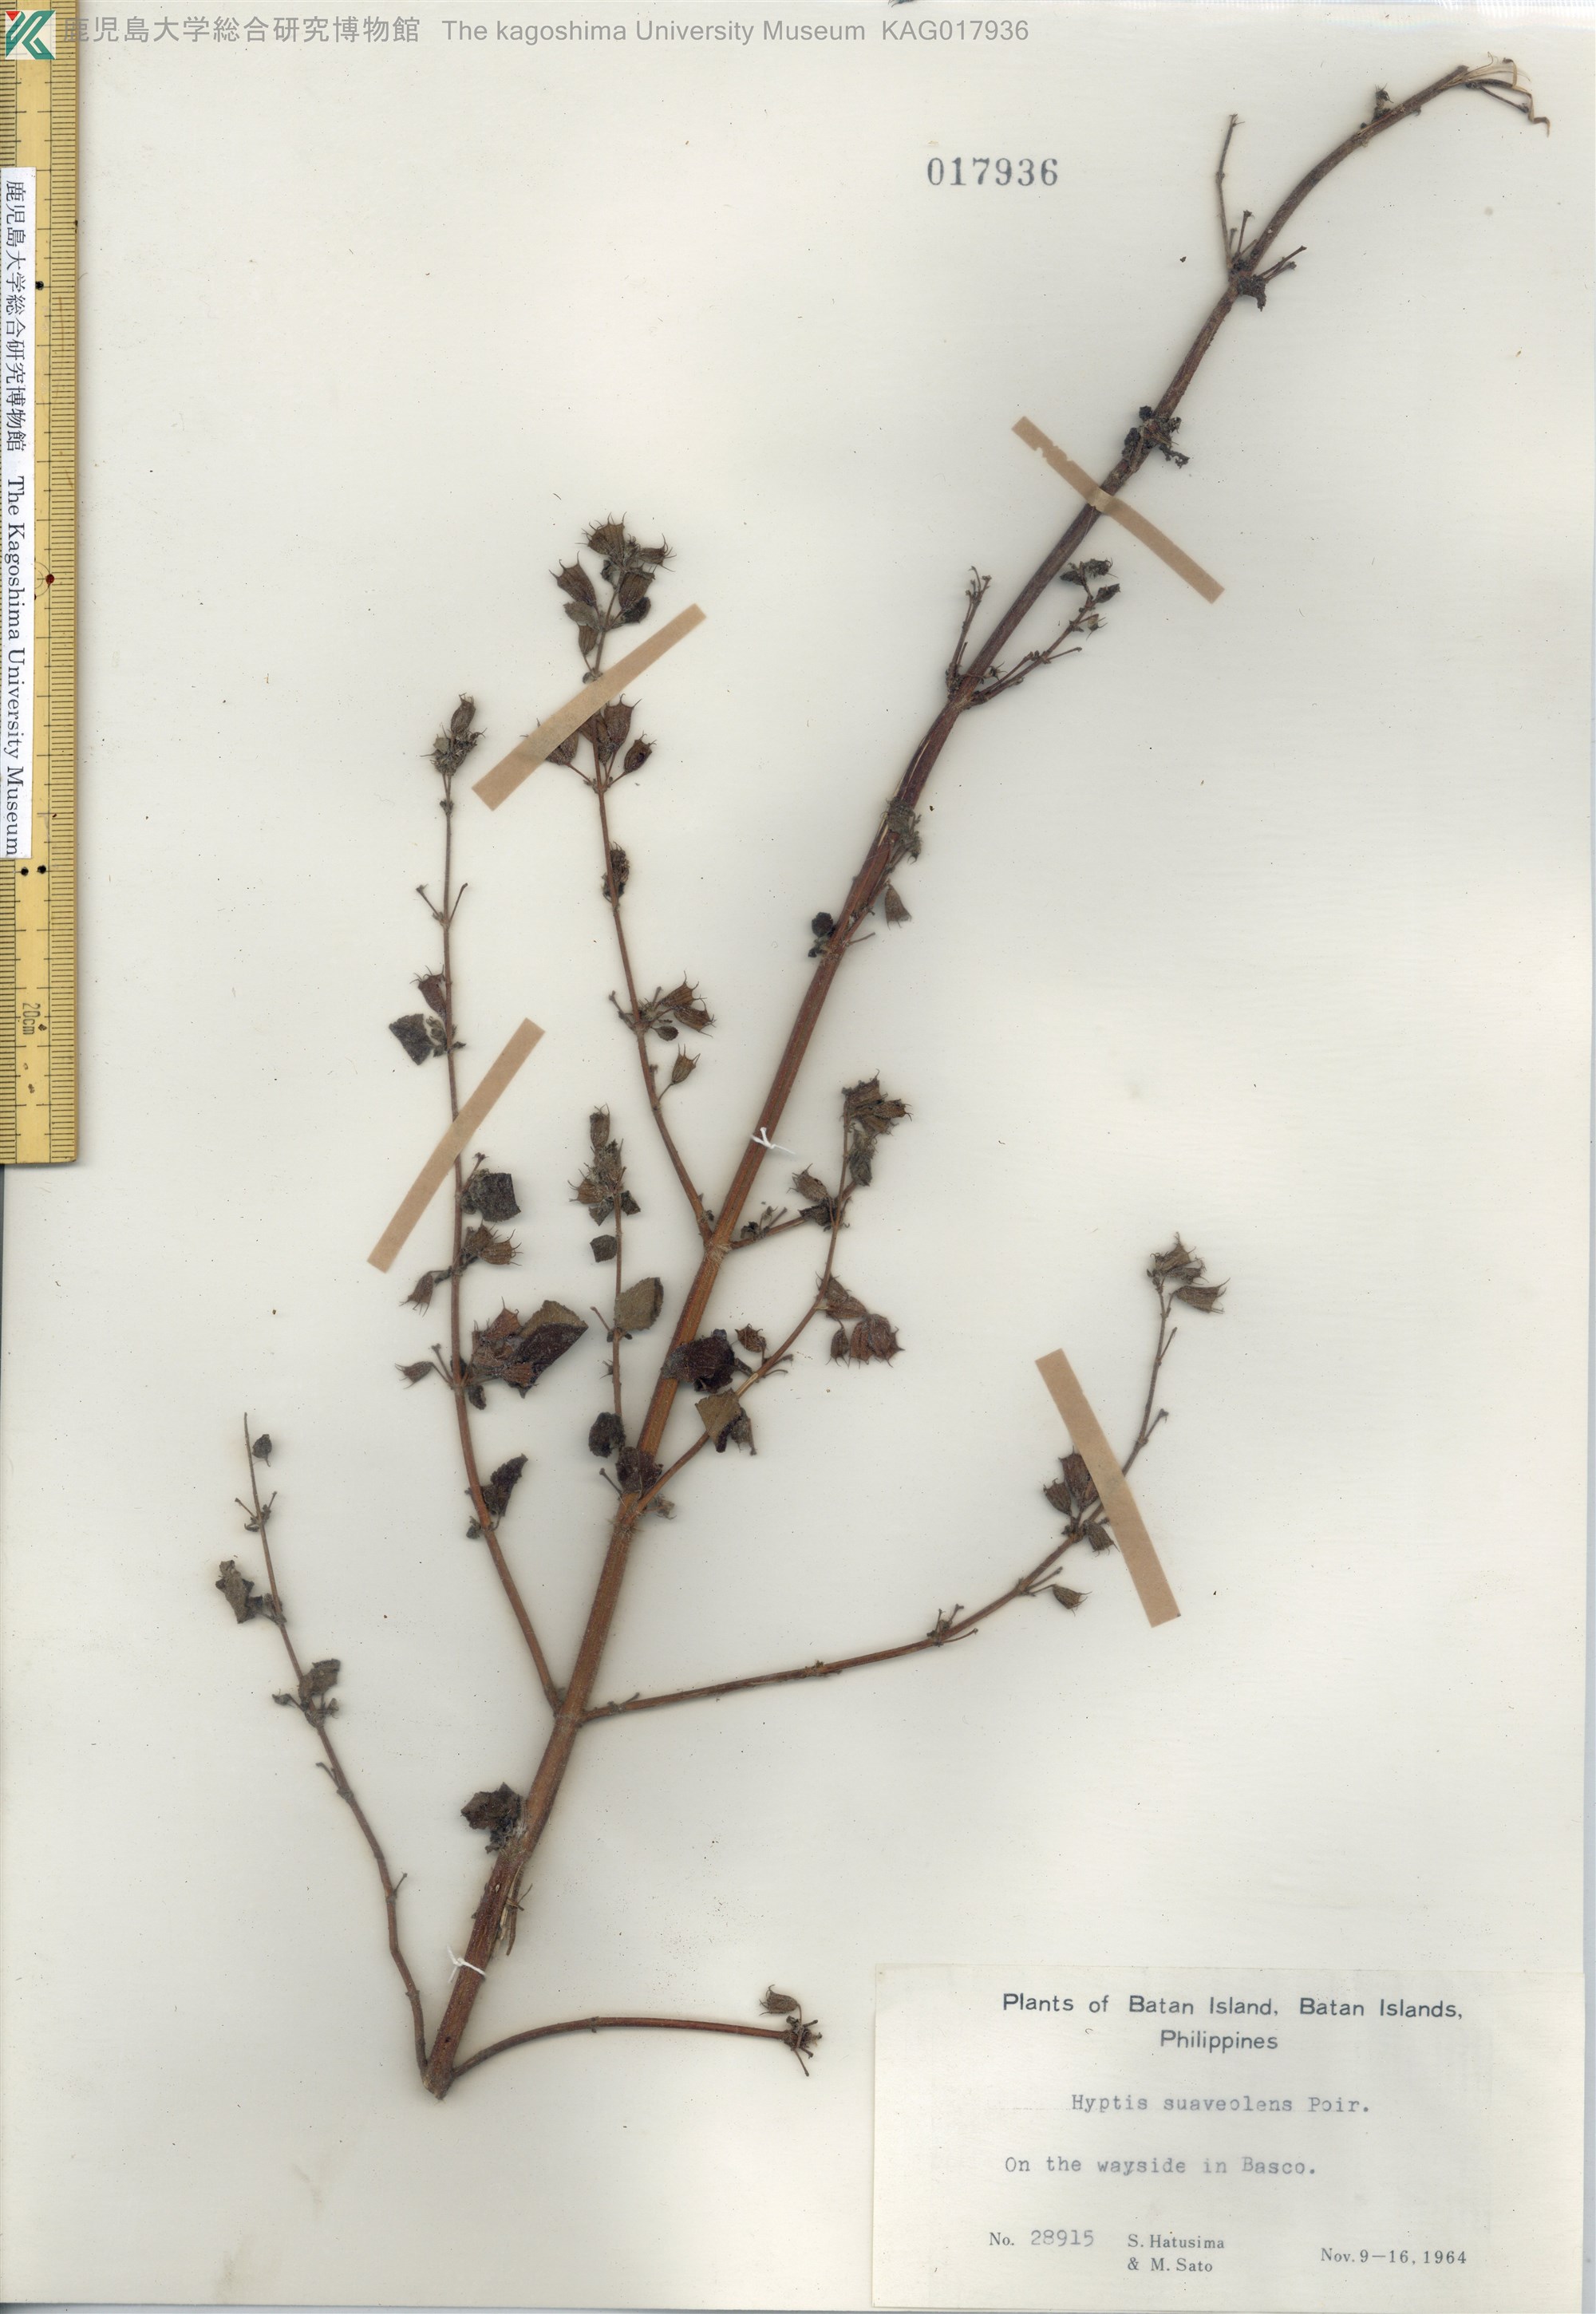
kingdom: Plantae
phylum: Tracheophyta
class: Magnoliopsida
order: Lamiales
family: Lamiaceae
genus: Mesosphaerum
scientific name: Mesosphaerum suaveolens
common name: Pignut
